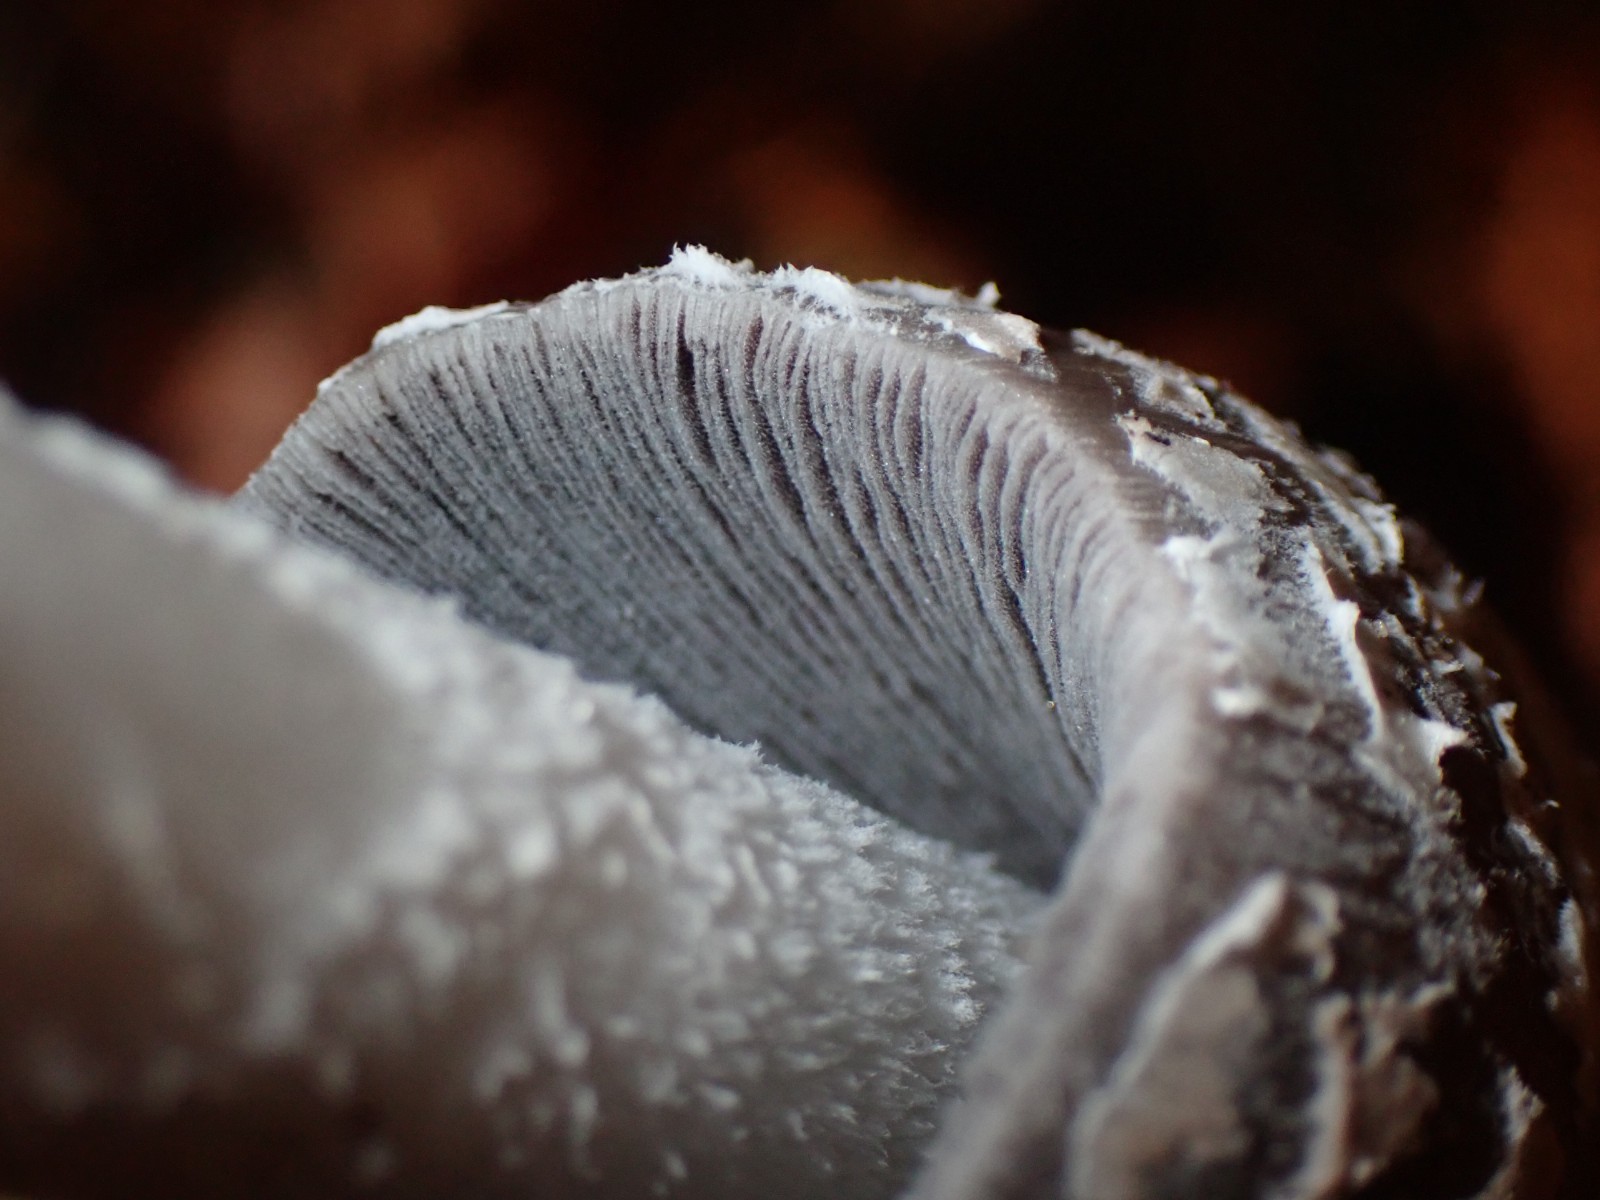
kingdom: Fungi
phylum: Basidiomycota
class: Agaricomycetes
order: Agaricales
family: Psathyrellaceae
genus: Coprinopsis
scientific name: Coprinopsis picacea
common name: skade-blækhat
